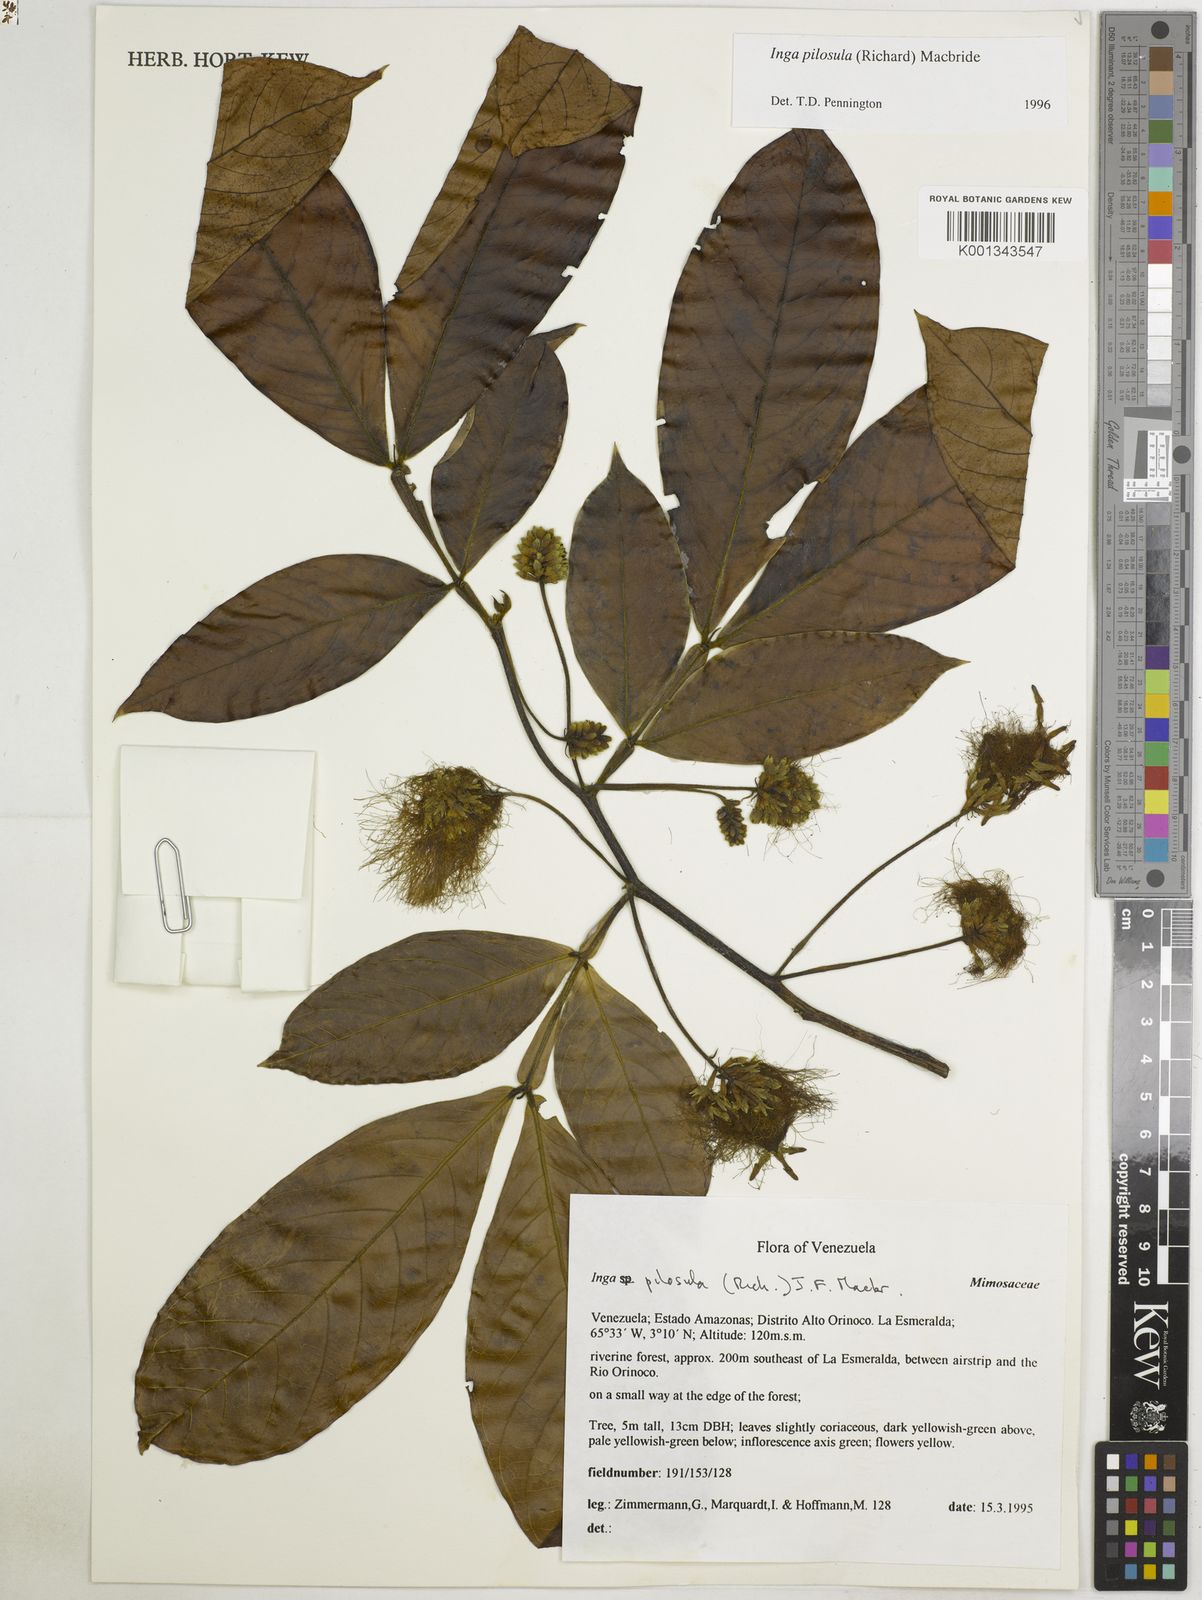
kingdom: Plantae
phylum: Tracheophyta
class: Magnoliopsida
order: Fabales
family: Fabaceae
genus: Inga
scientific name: Inga pilosula
